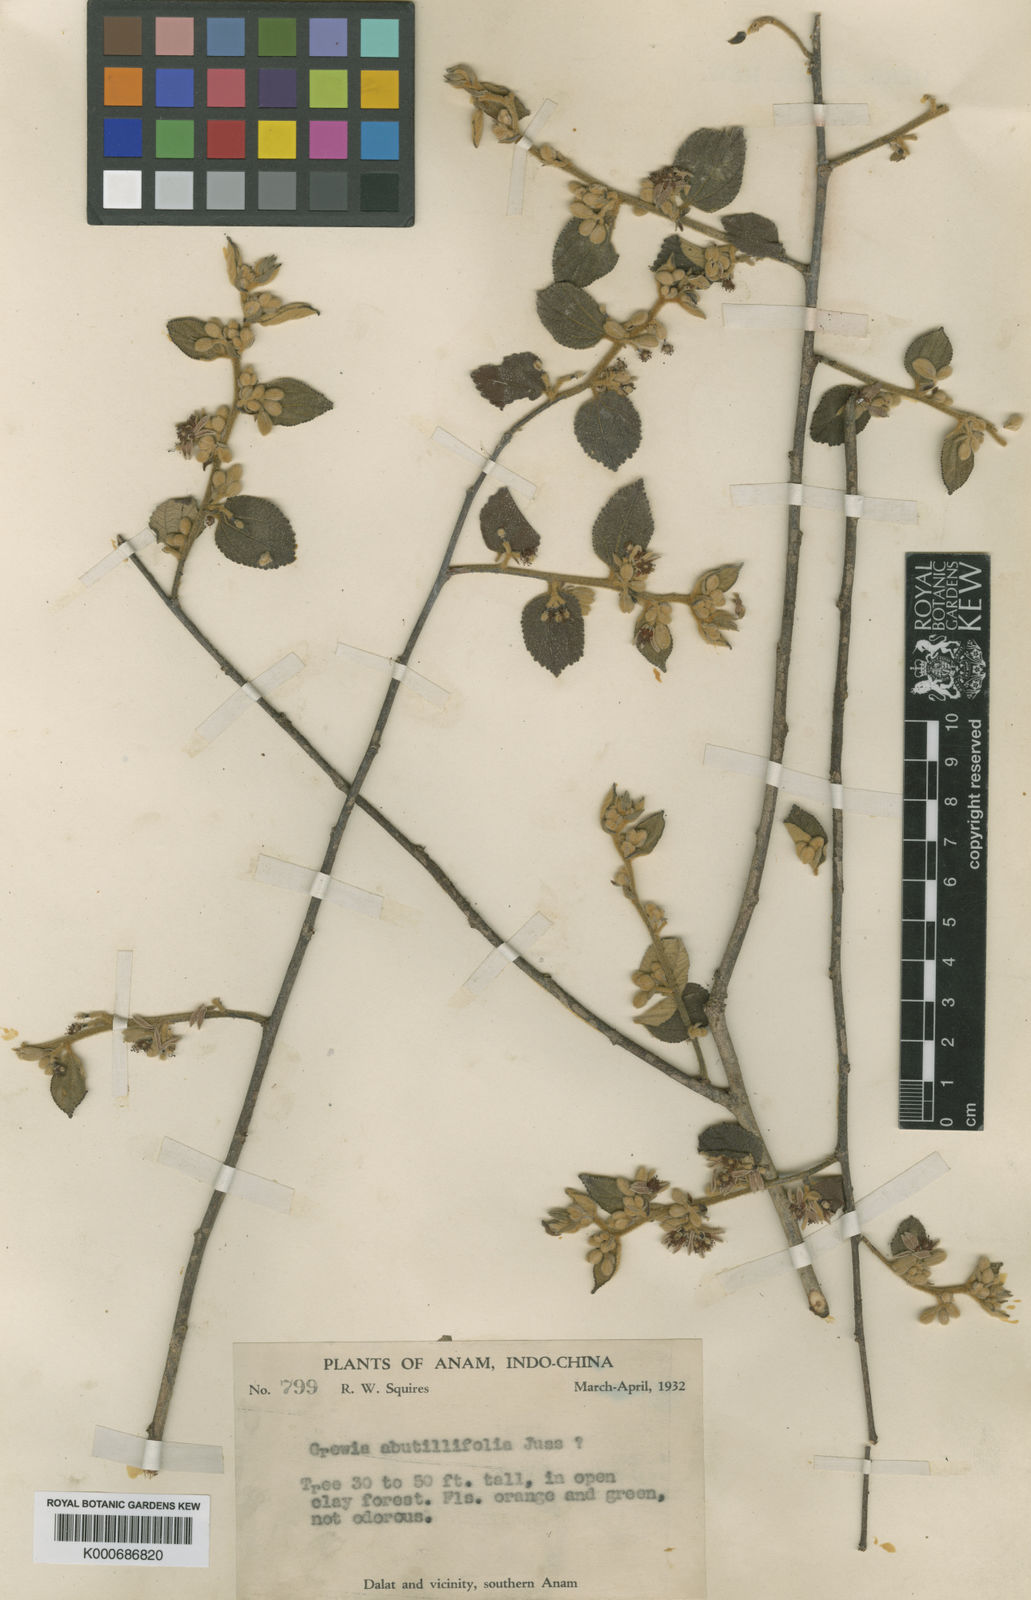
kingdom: Plantae
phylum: Tracheophyta
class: Magnoliopsida
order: Malvales
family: Malvaceae
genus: Grewia
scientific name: Grewia abutilifolia
